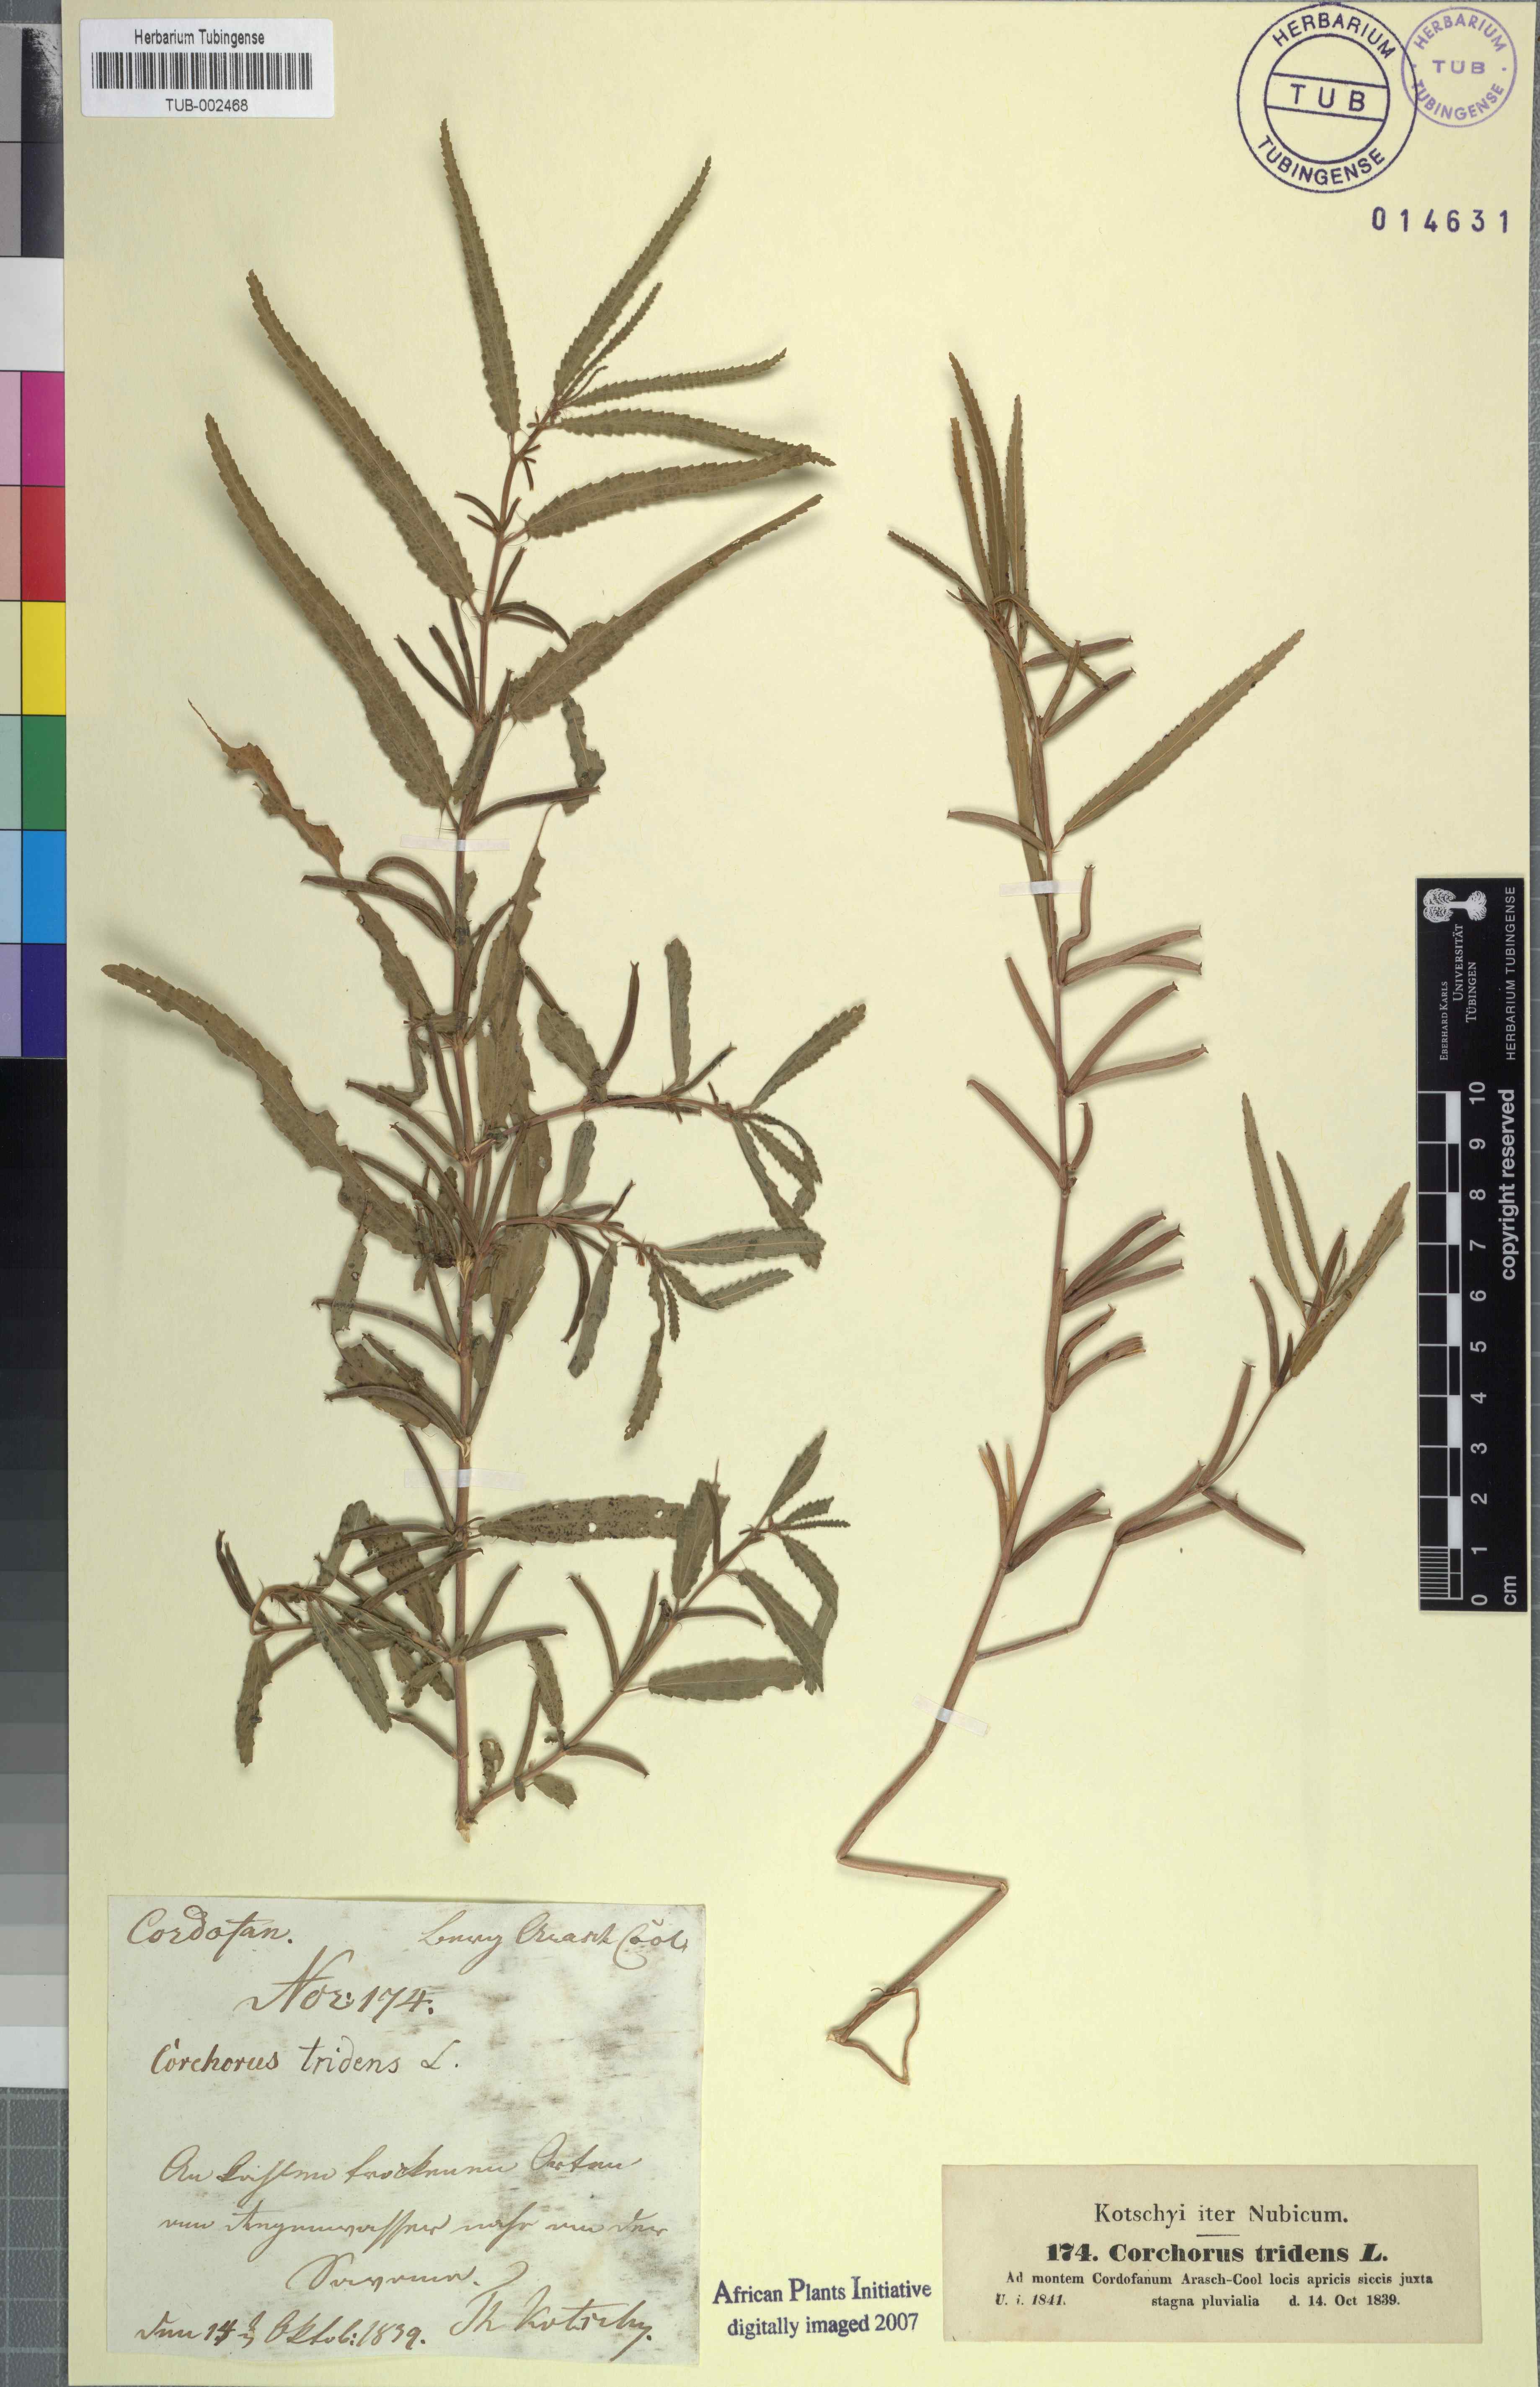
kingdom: Plantae
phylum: Tracheophyta
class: Magnoliopsida
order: Malvales
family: Malvaceae
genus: Corchorus
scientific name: Corchorus tridens
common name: Wild jute
